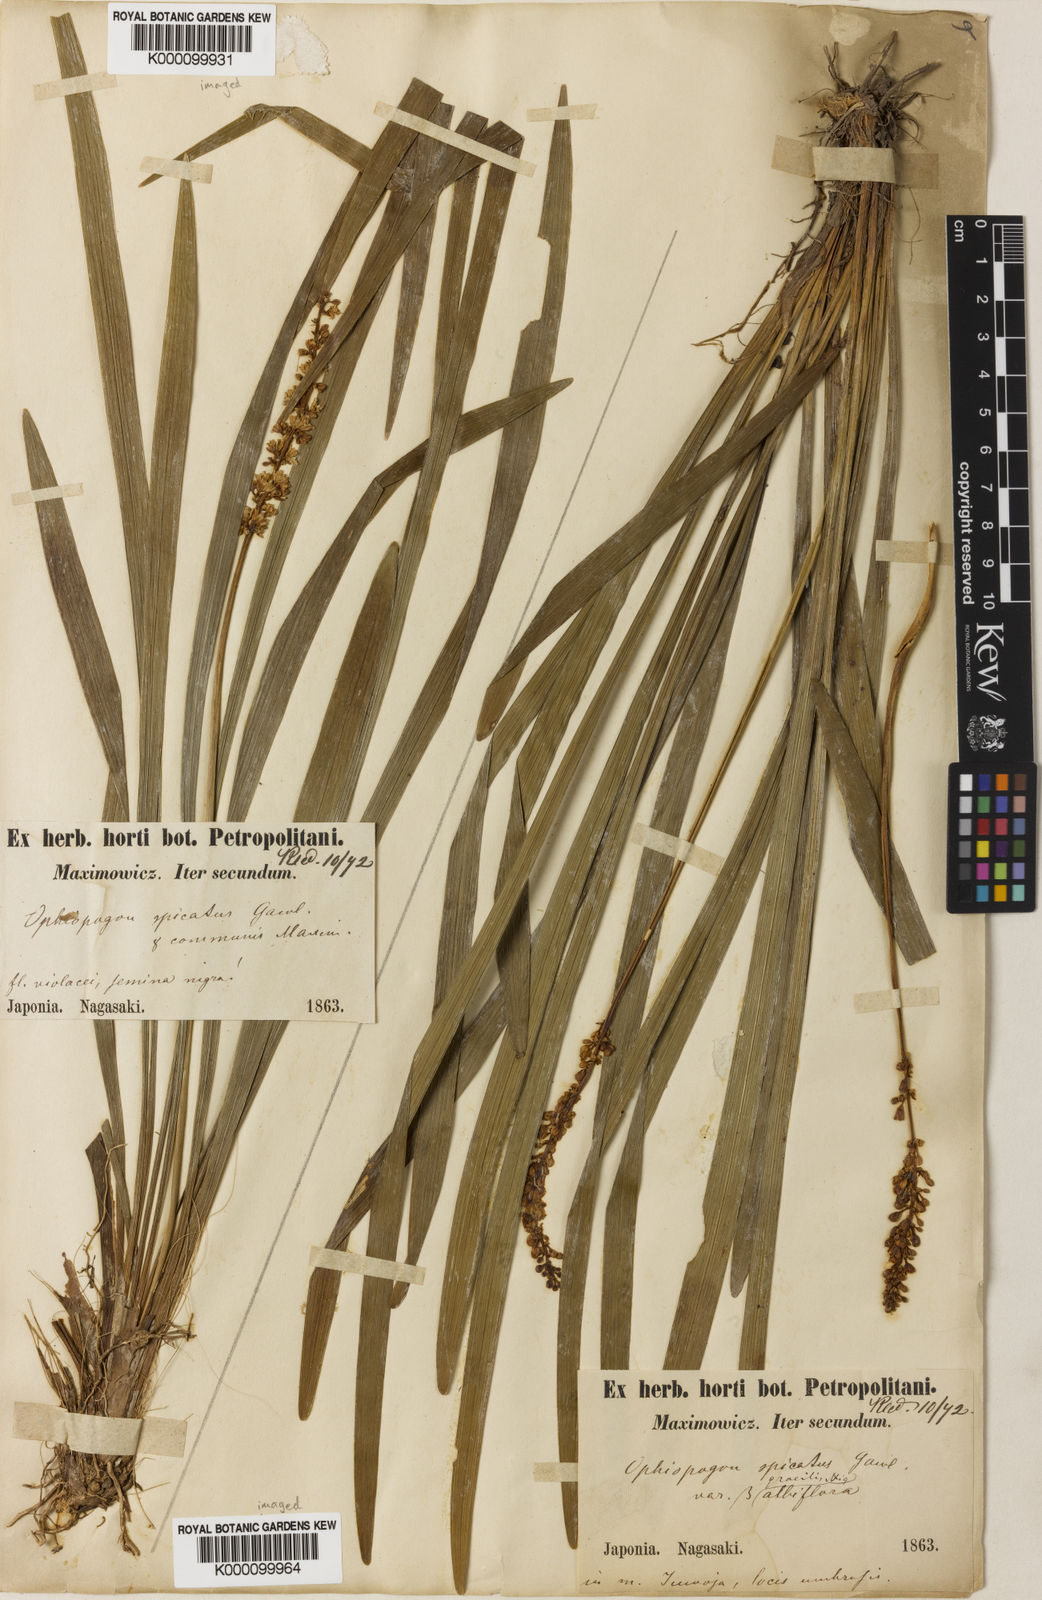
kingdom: Plantae
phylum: Tracheophyta
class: Liliopsida
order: Asparagales
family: Asparagaceae
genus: Liriope
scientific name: Liriope muscari
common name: Big blue lilyturf
